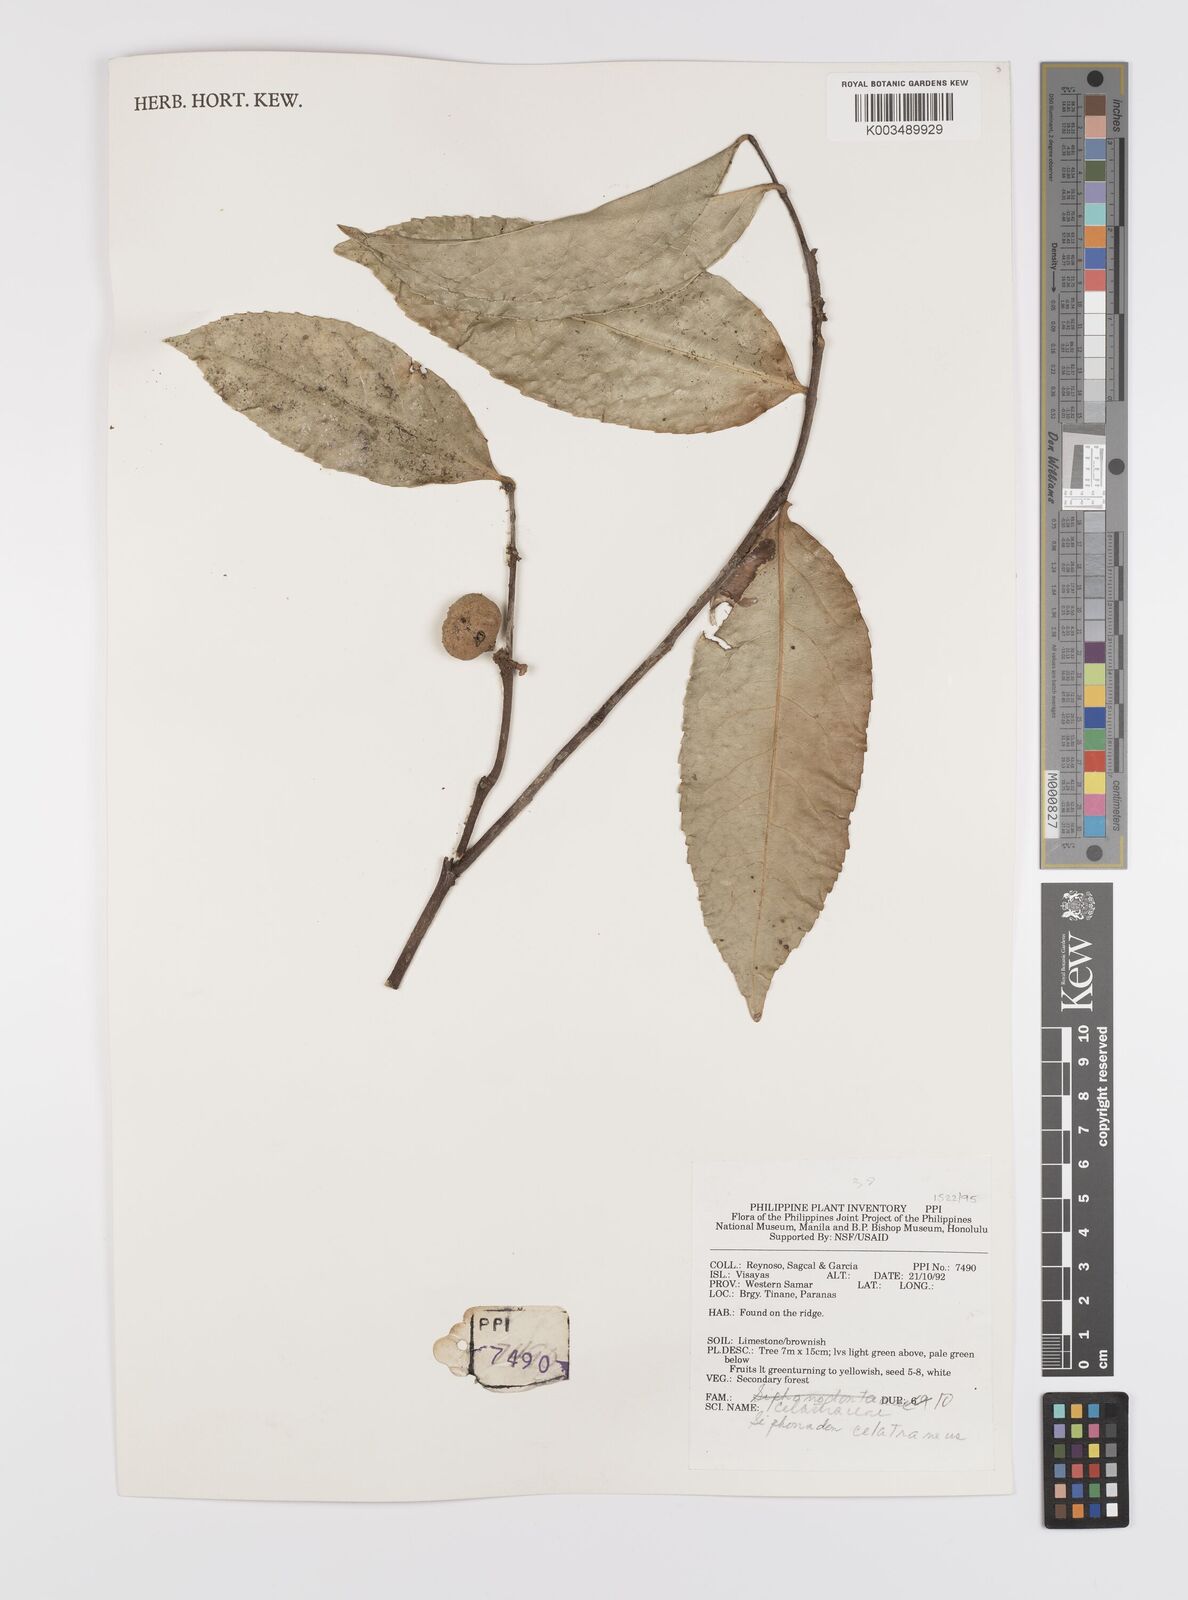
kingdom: Plantae
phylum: Tracheophyta
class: Magnoliopsida
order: Celastrales
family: Celastraceae
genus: Siphonodon
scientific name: Siphonodon celastrineus
